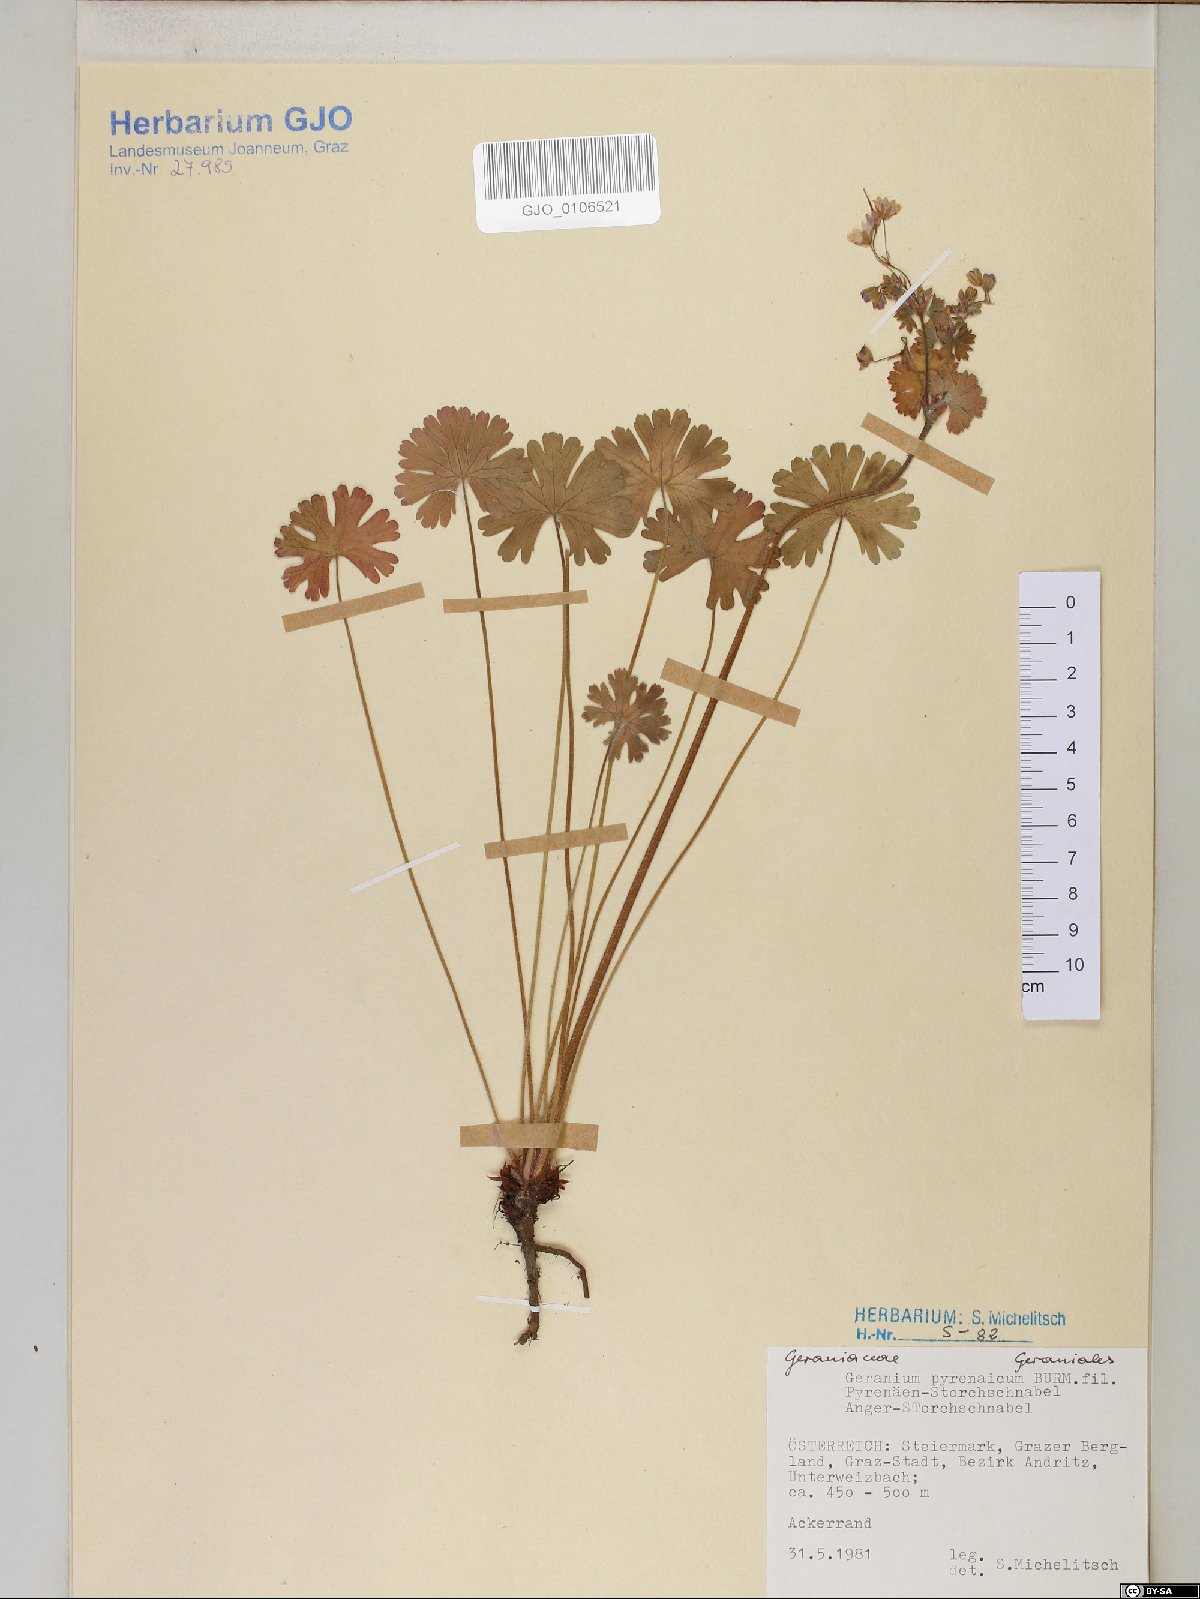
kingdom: Plantae
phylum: Tracheophyta
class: Magnoliopsida
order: Geraniales
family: Geraniaceae
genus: Geranium
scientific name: Geranium pyrenaicum
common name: Hedgerow crane's-bill
